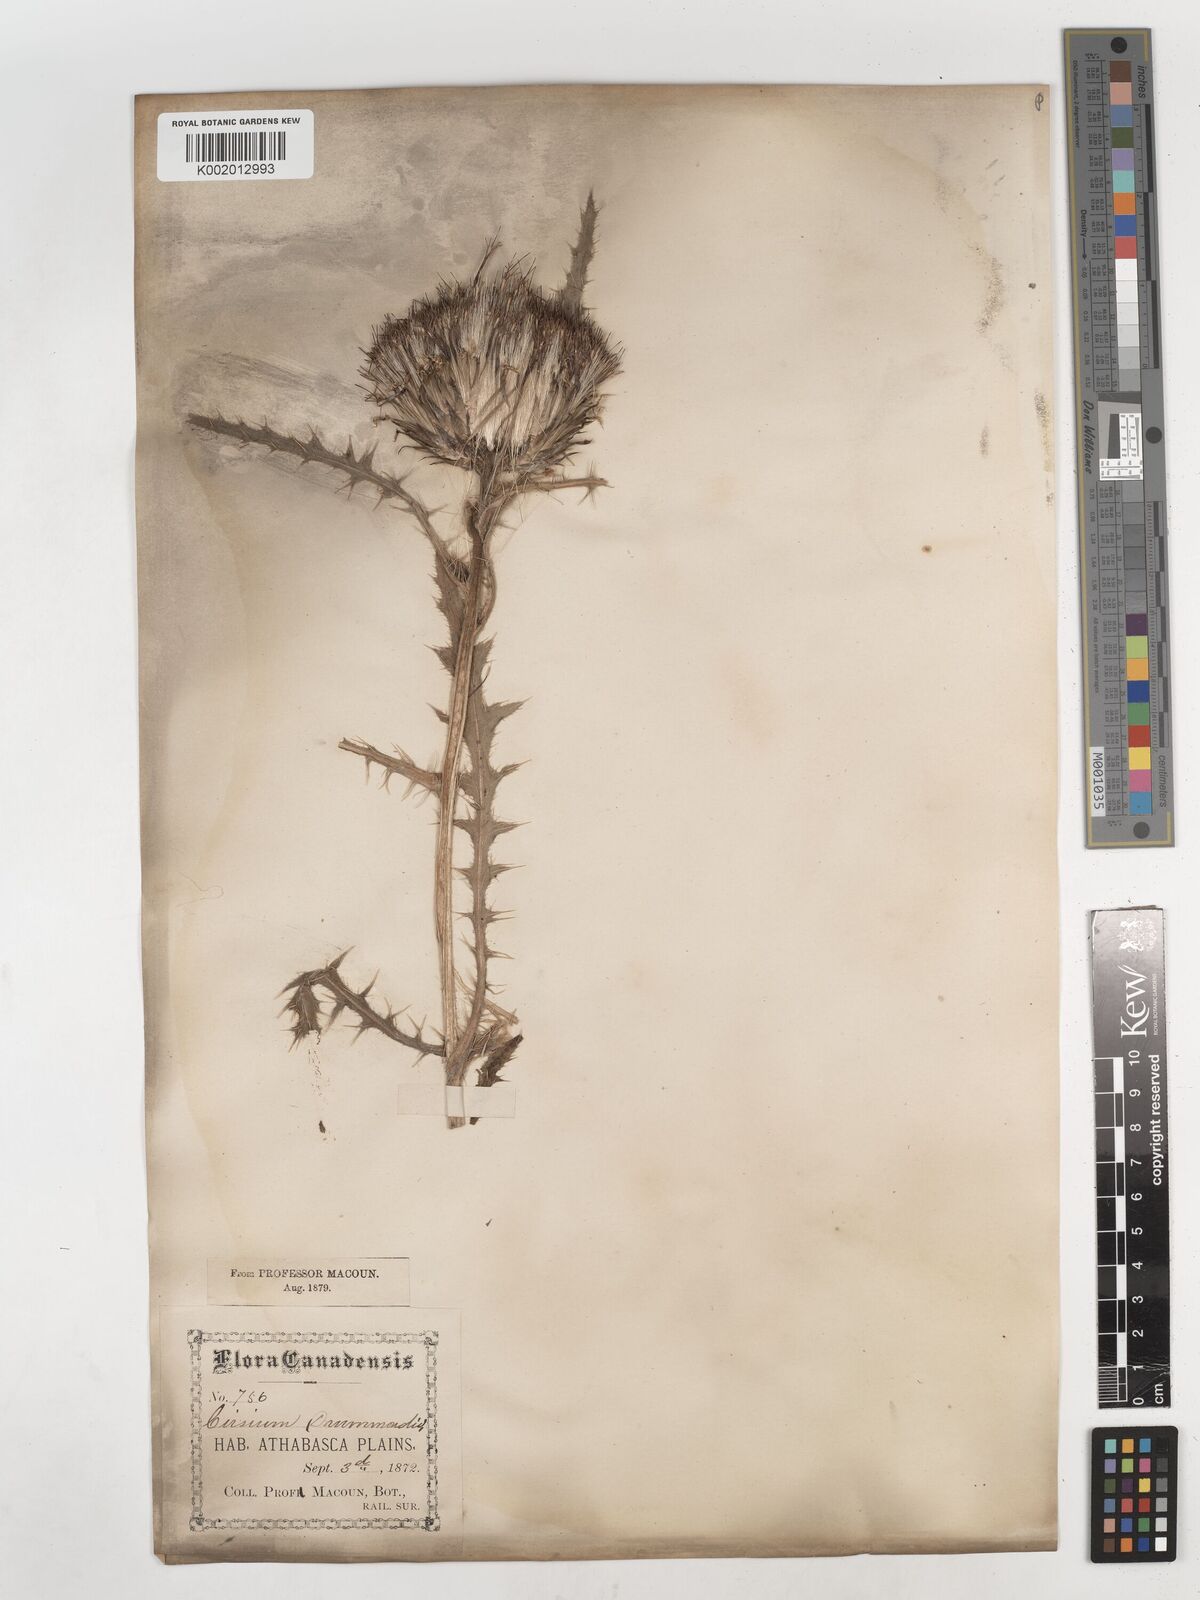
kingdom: Plantae
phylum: Tracheophyta
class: Magnoliopsida
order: Asterales
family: Asteraceae
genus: Cirsium
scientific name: Cirsium drummondii
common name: Drummond's thistle
